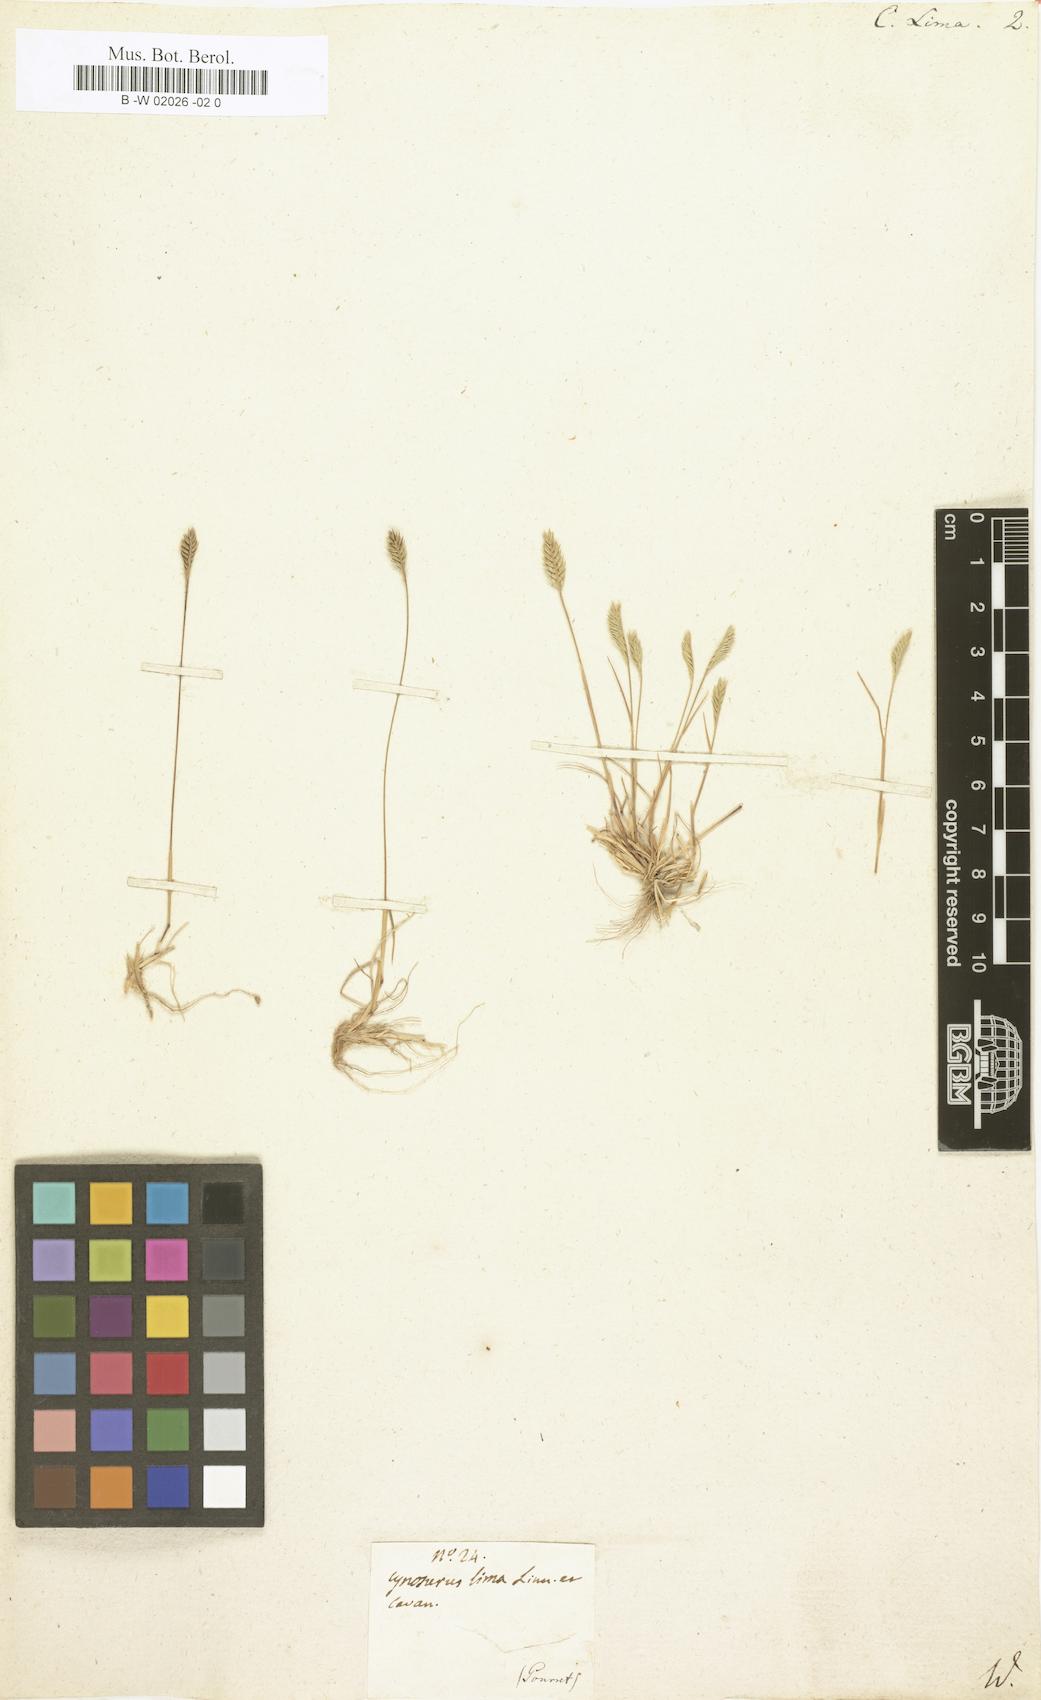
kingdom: Plantae
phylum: Tracheophyta
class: Liliopsida
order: Poales
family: Poaceae
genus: Wangenheimia
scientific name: Wangenheimia lima
